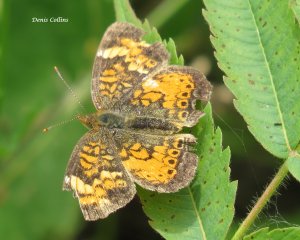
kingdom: Animalia
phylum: Arthropoda
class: Insecta
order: Lepidoptera
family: Nymphalidae
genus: Phyciodes
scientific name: Phyciodes tharos
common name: Northern Crescent
